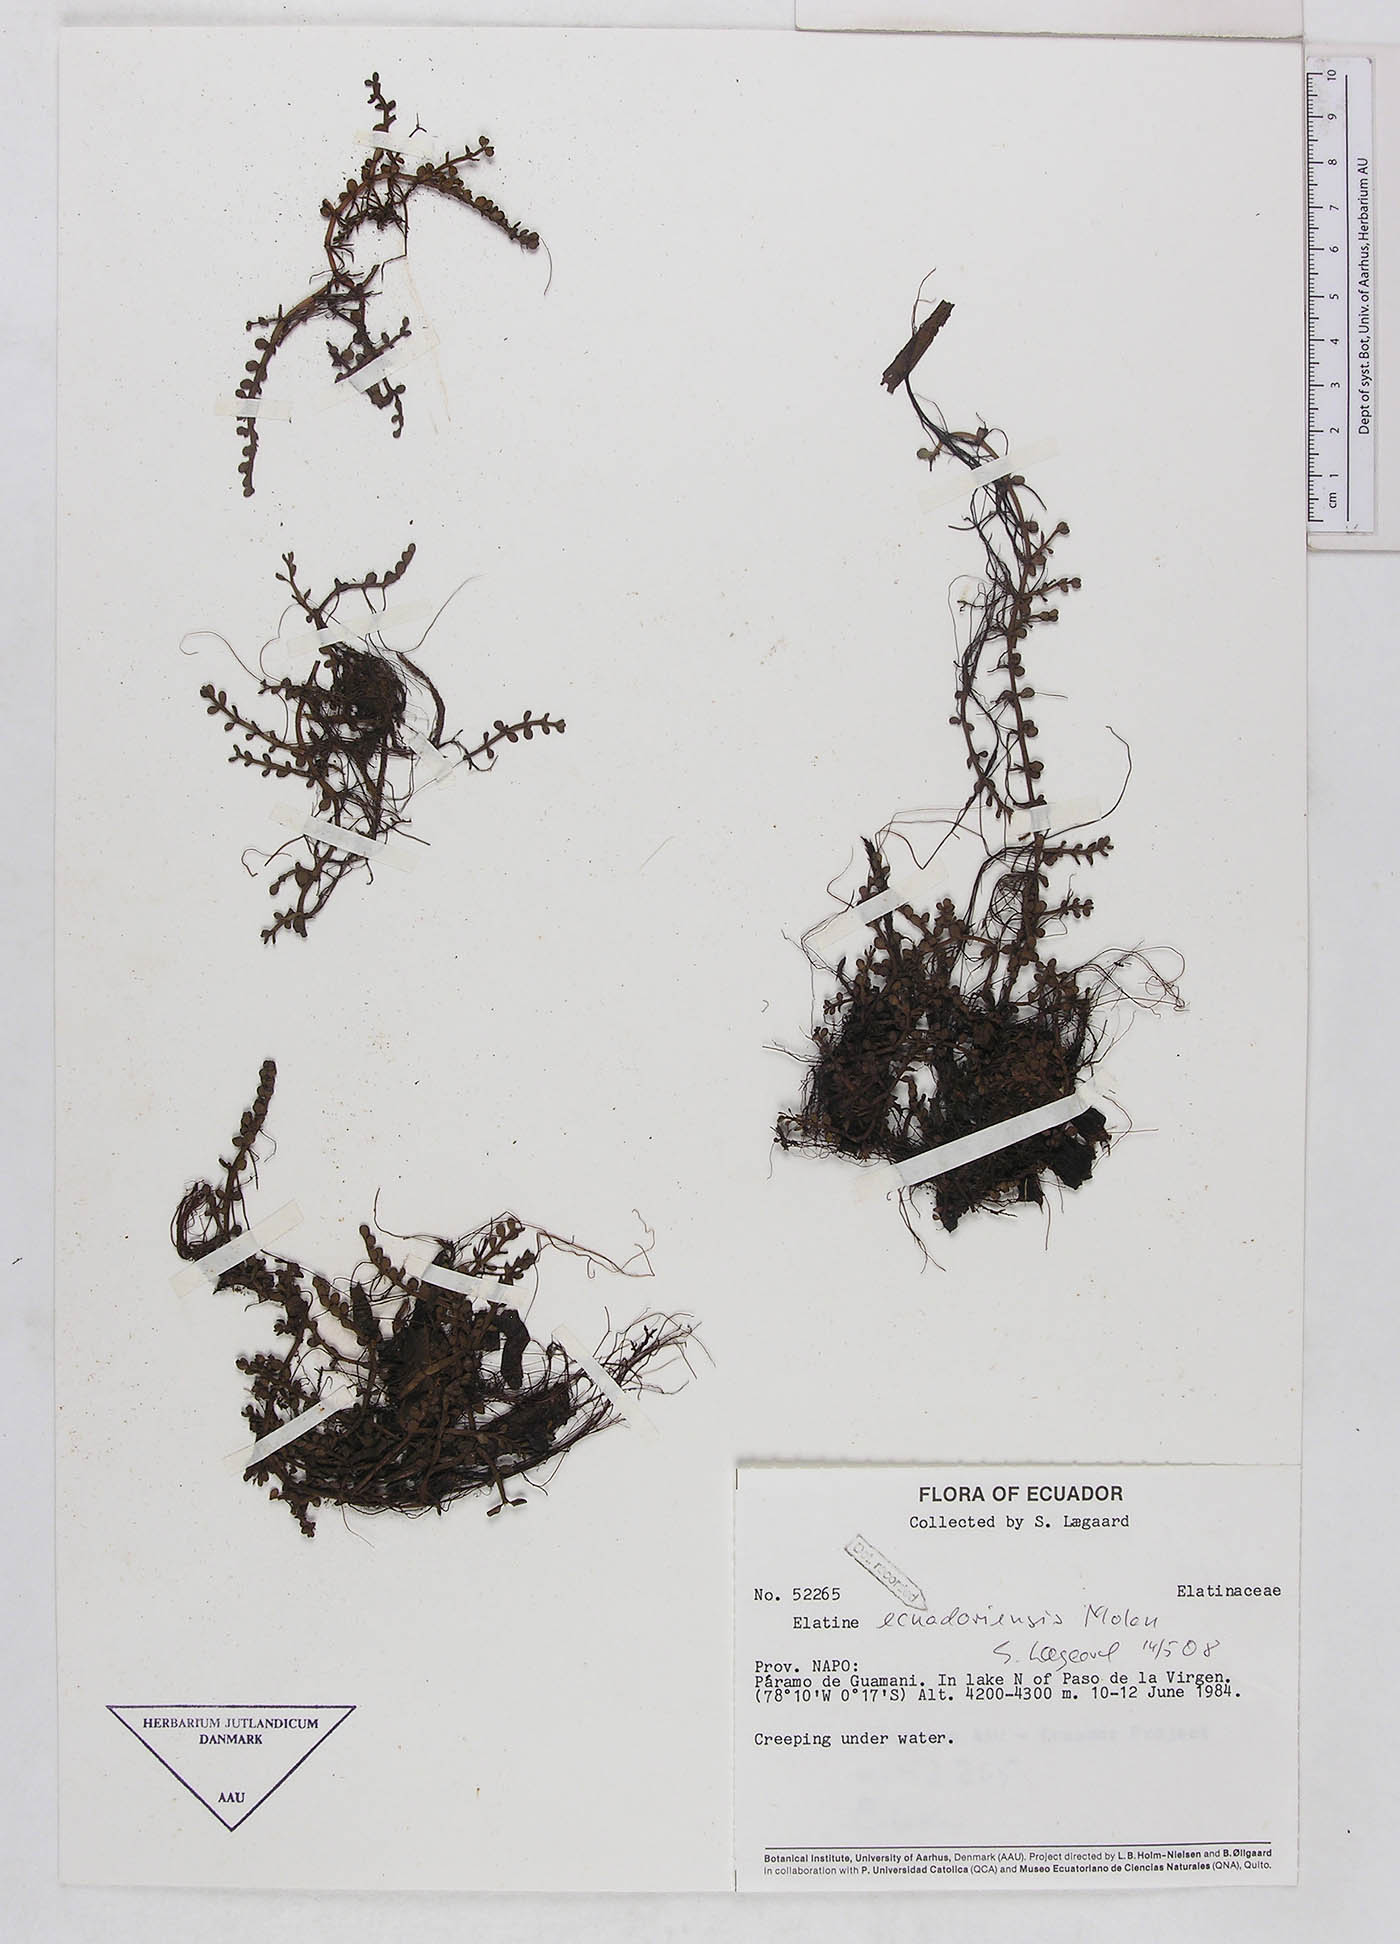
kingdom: Plantae
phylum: Tracheophyta
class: Liliopsida
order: Poales
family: Poaceae
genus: Sporobolus
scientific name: Sporobolus tenuissimus
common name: Tropical dropseed
